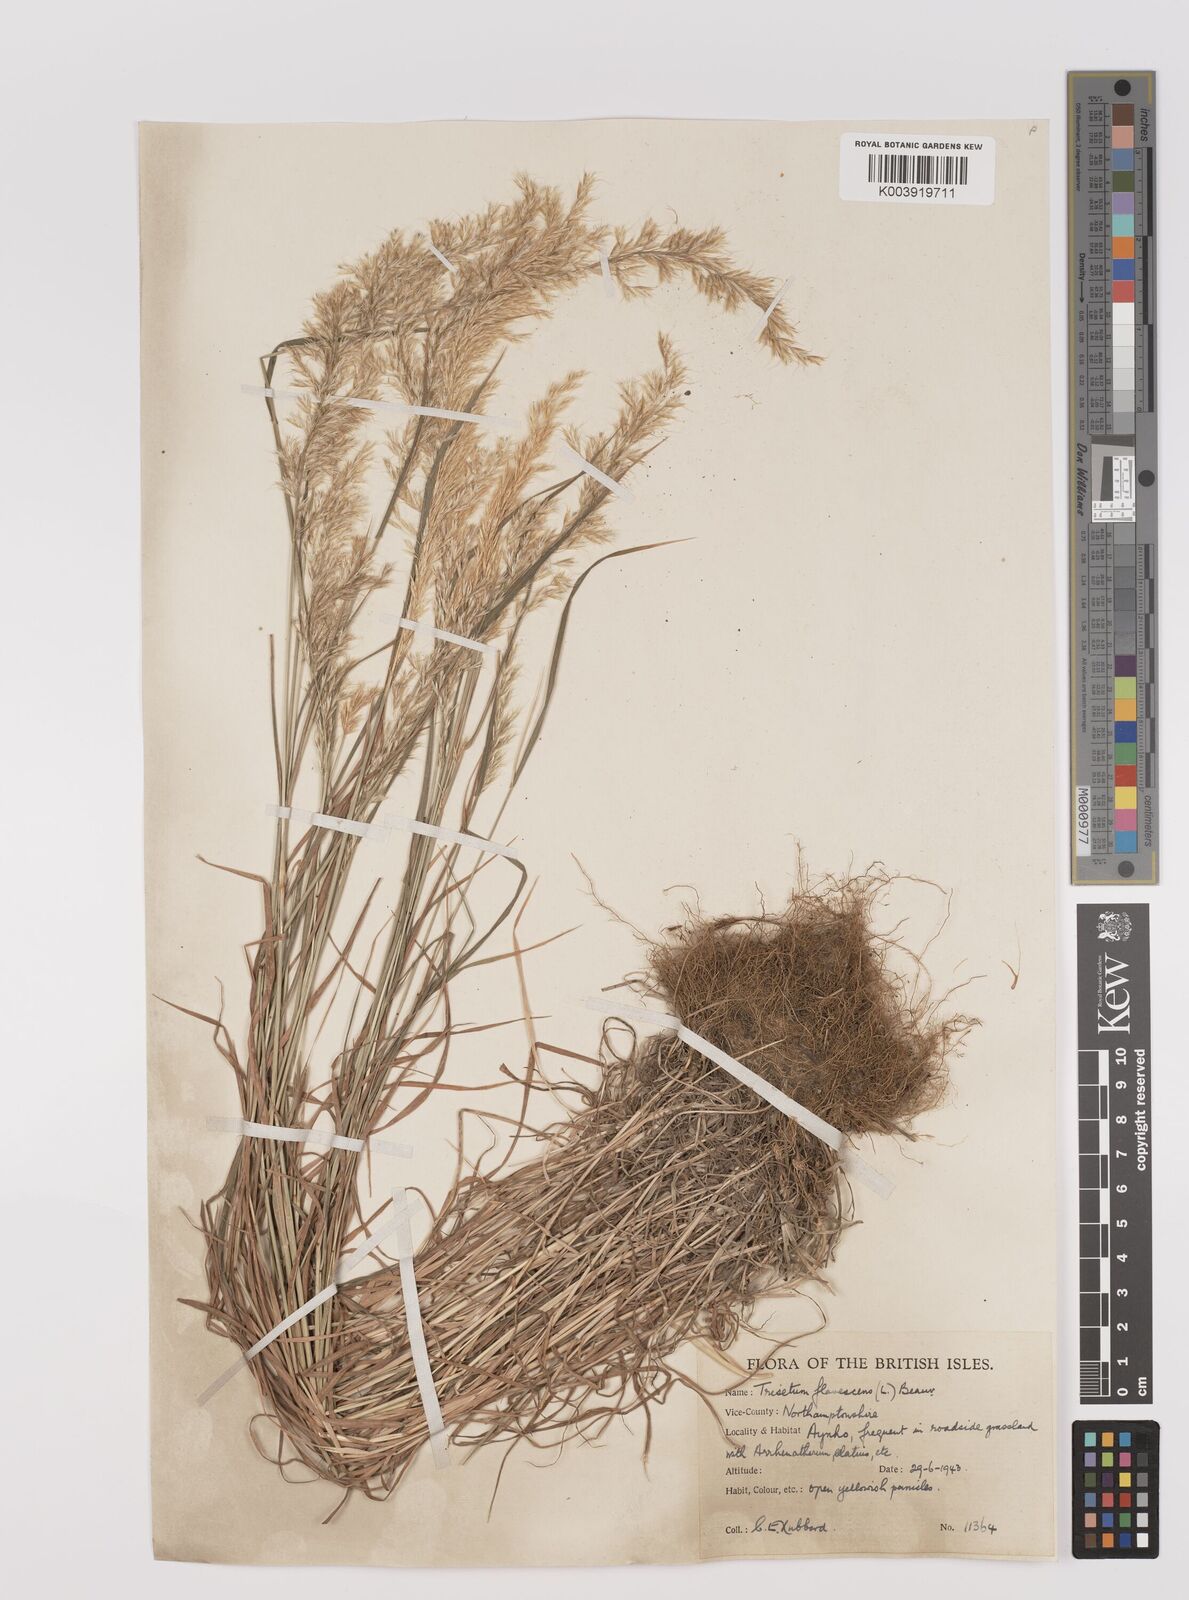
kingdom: Plantae
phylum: Tracheophyta
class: Liliopsida
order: Poales
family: Poaceae
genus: Trisetum
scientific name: Trisetum flavescens
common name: Yellow oat-grass
